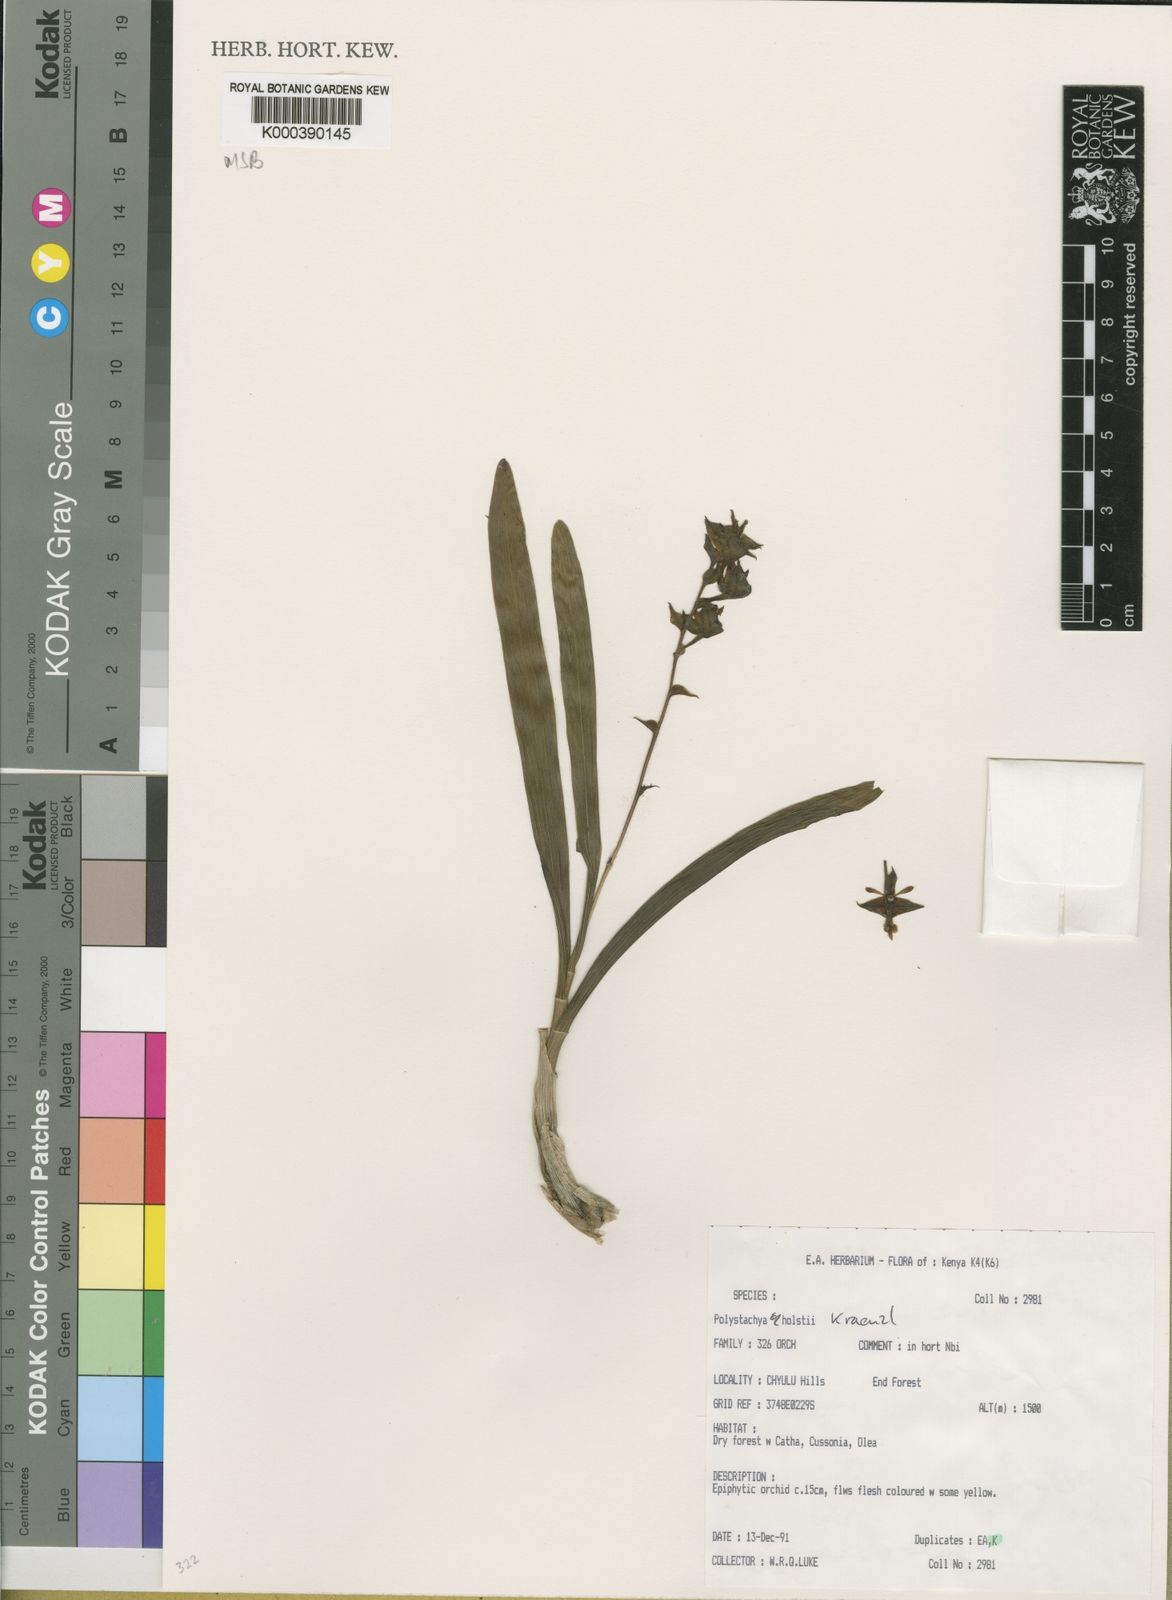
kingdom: Plantae
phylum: Tracheophyta
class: Liliopsida
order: Asparagales
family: Orchidaceae
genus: Polystachya
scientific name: Polystachya holstii
